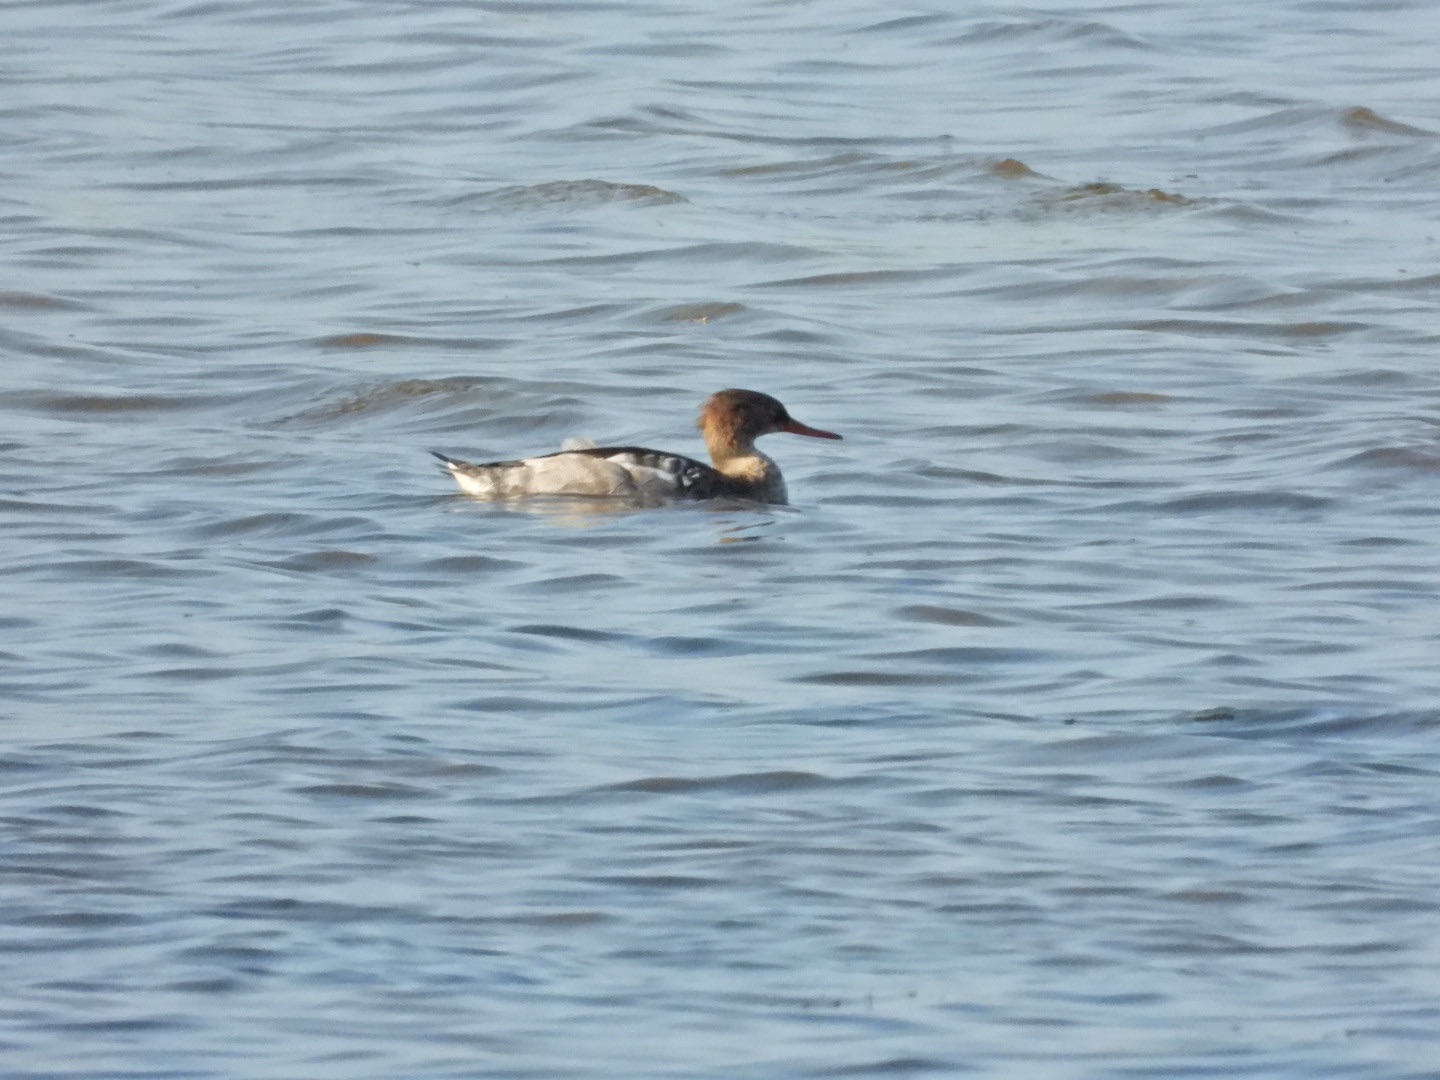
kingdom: Animalia
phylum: Chordata
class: Aves
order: Anseriformes
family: Anatidae
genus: Mergus
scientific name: Mergus serrator
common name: Toppet skallesluger
